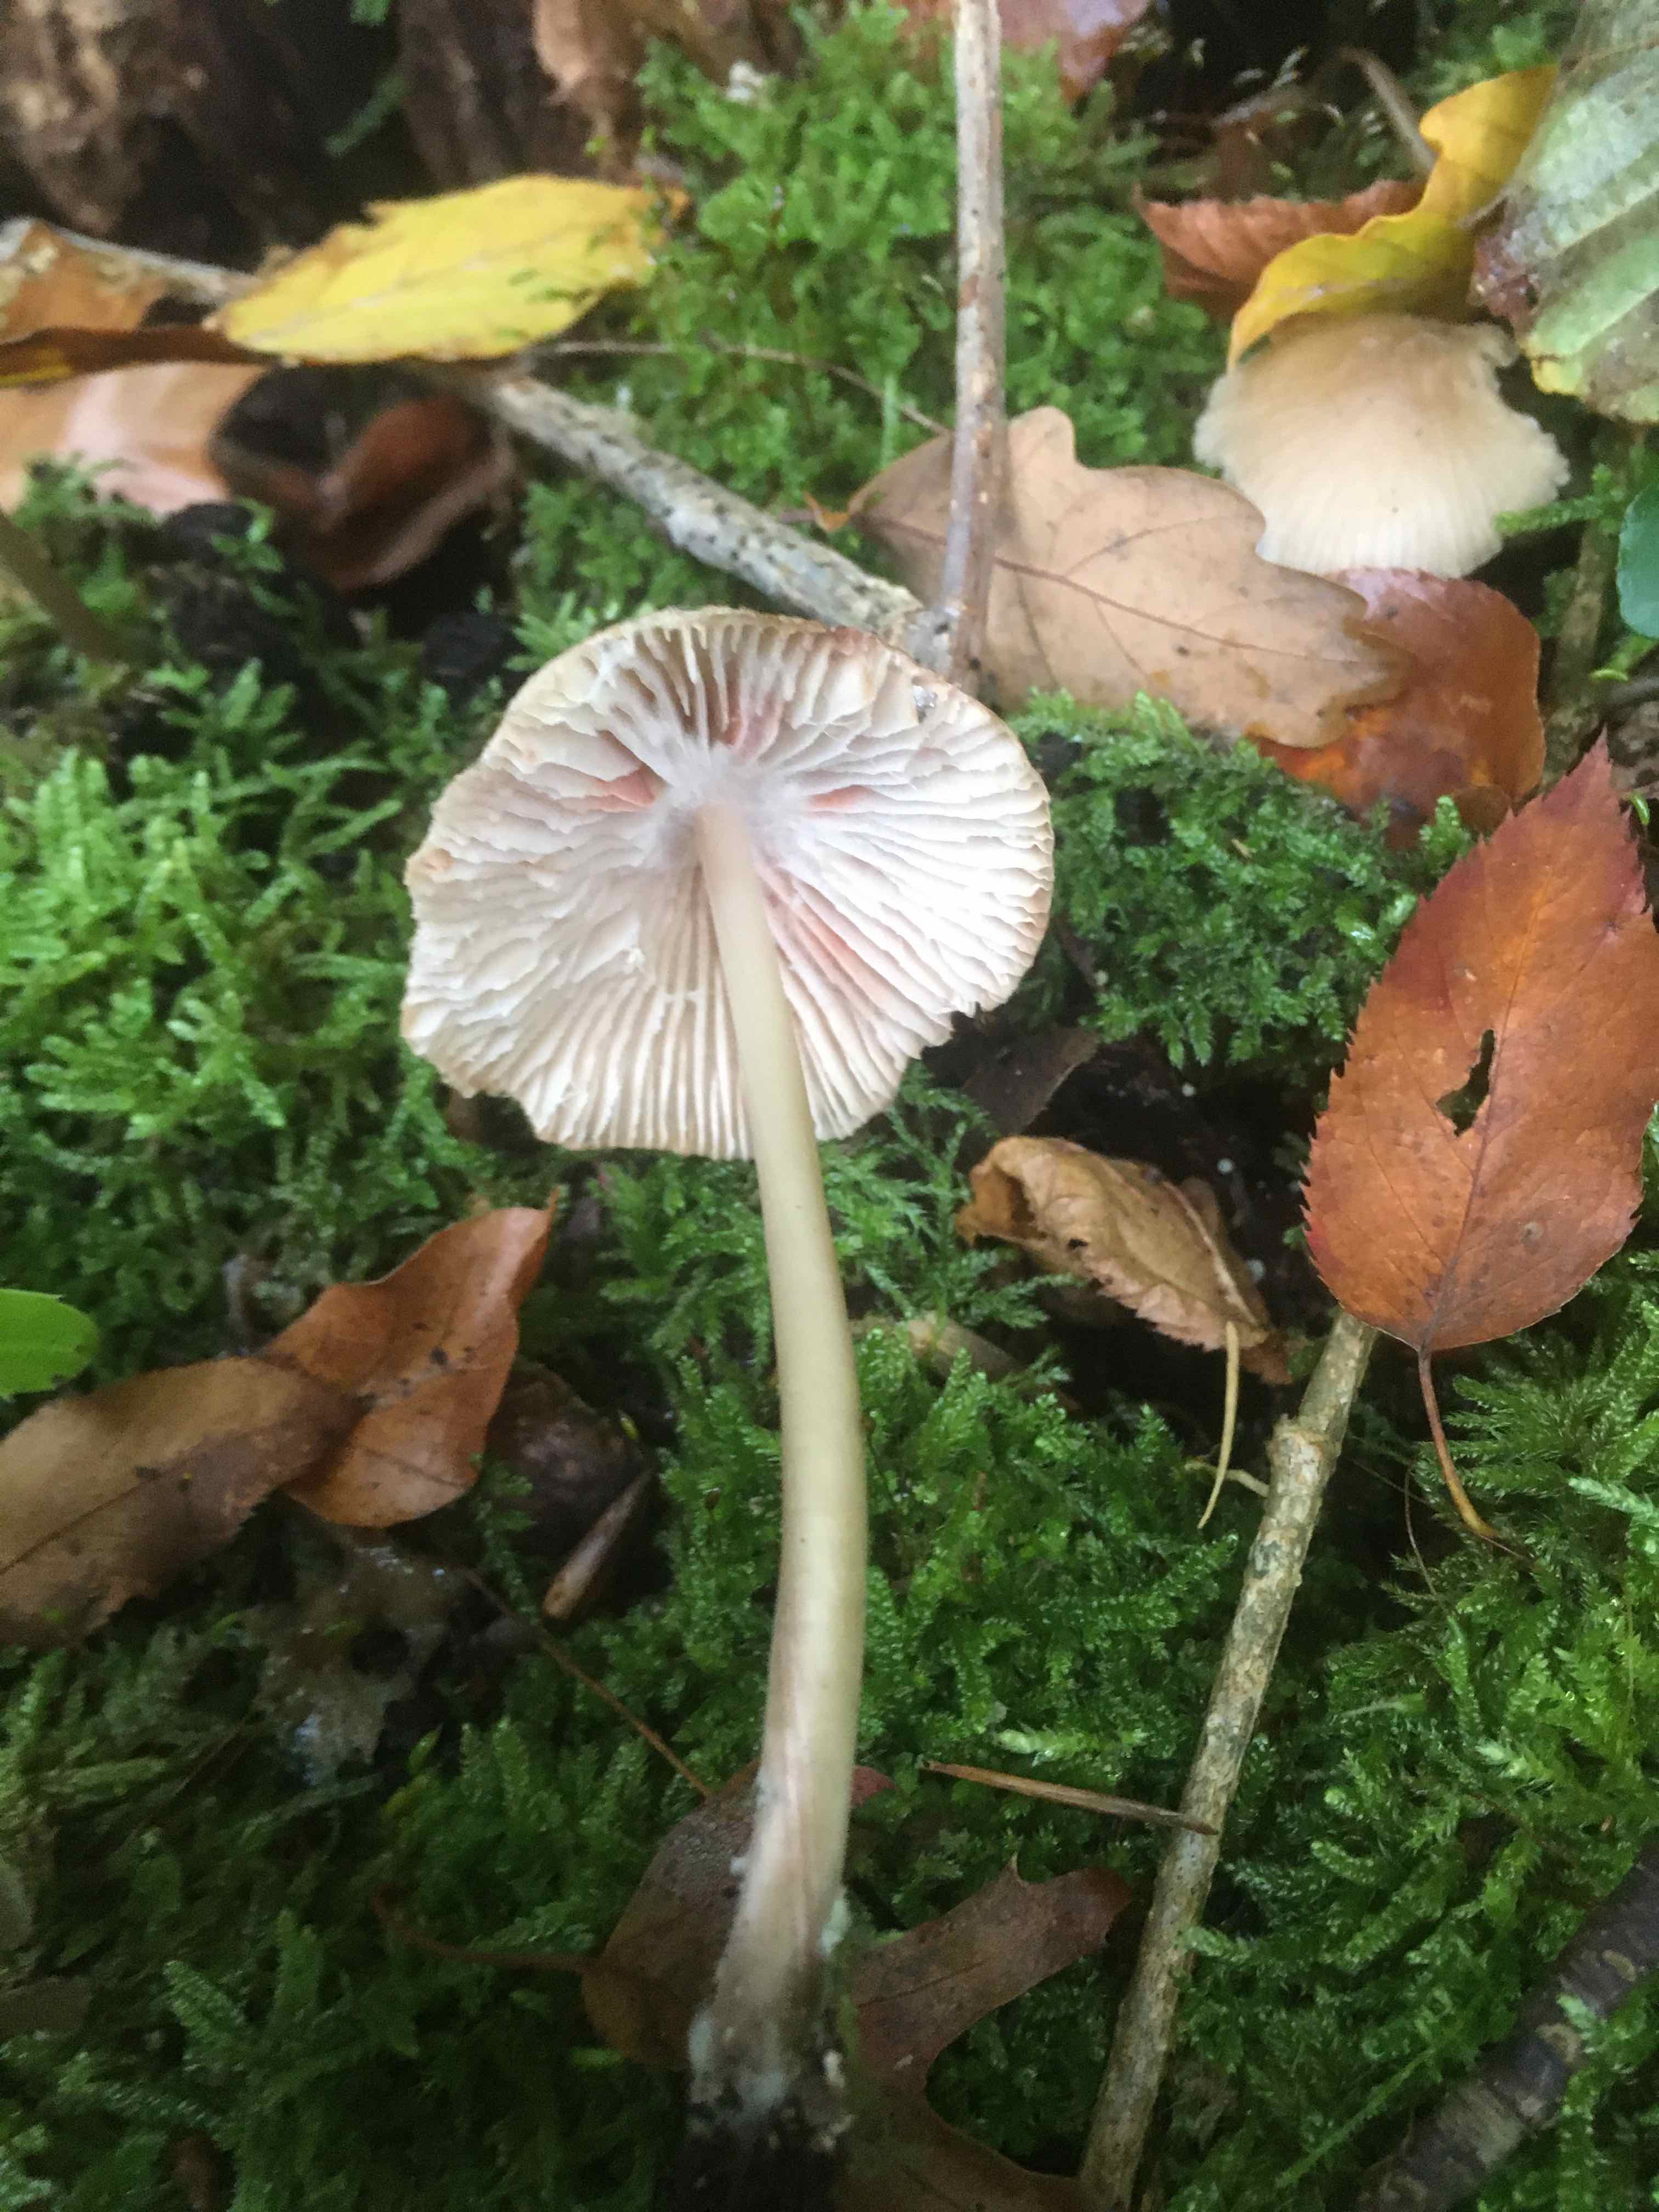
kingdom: Fungi
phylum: Basidiomycota
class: Agaricomycetes
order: Agaricales
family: Mycenaceae
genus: Mycena
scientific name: Mycena galericulata
